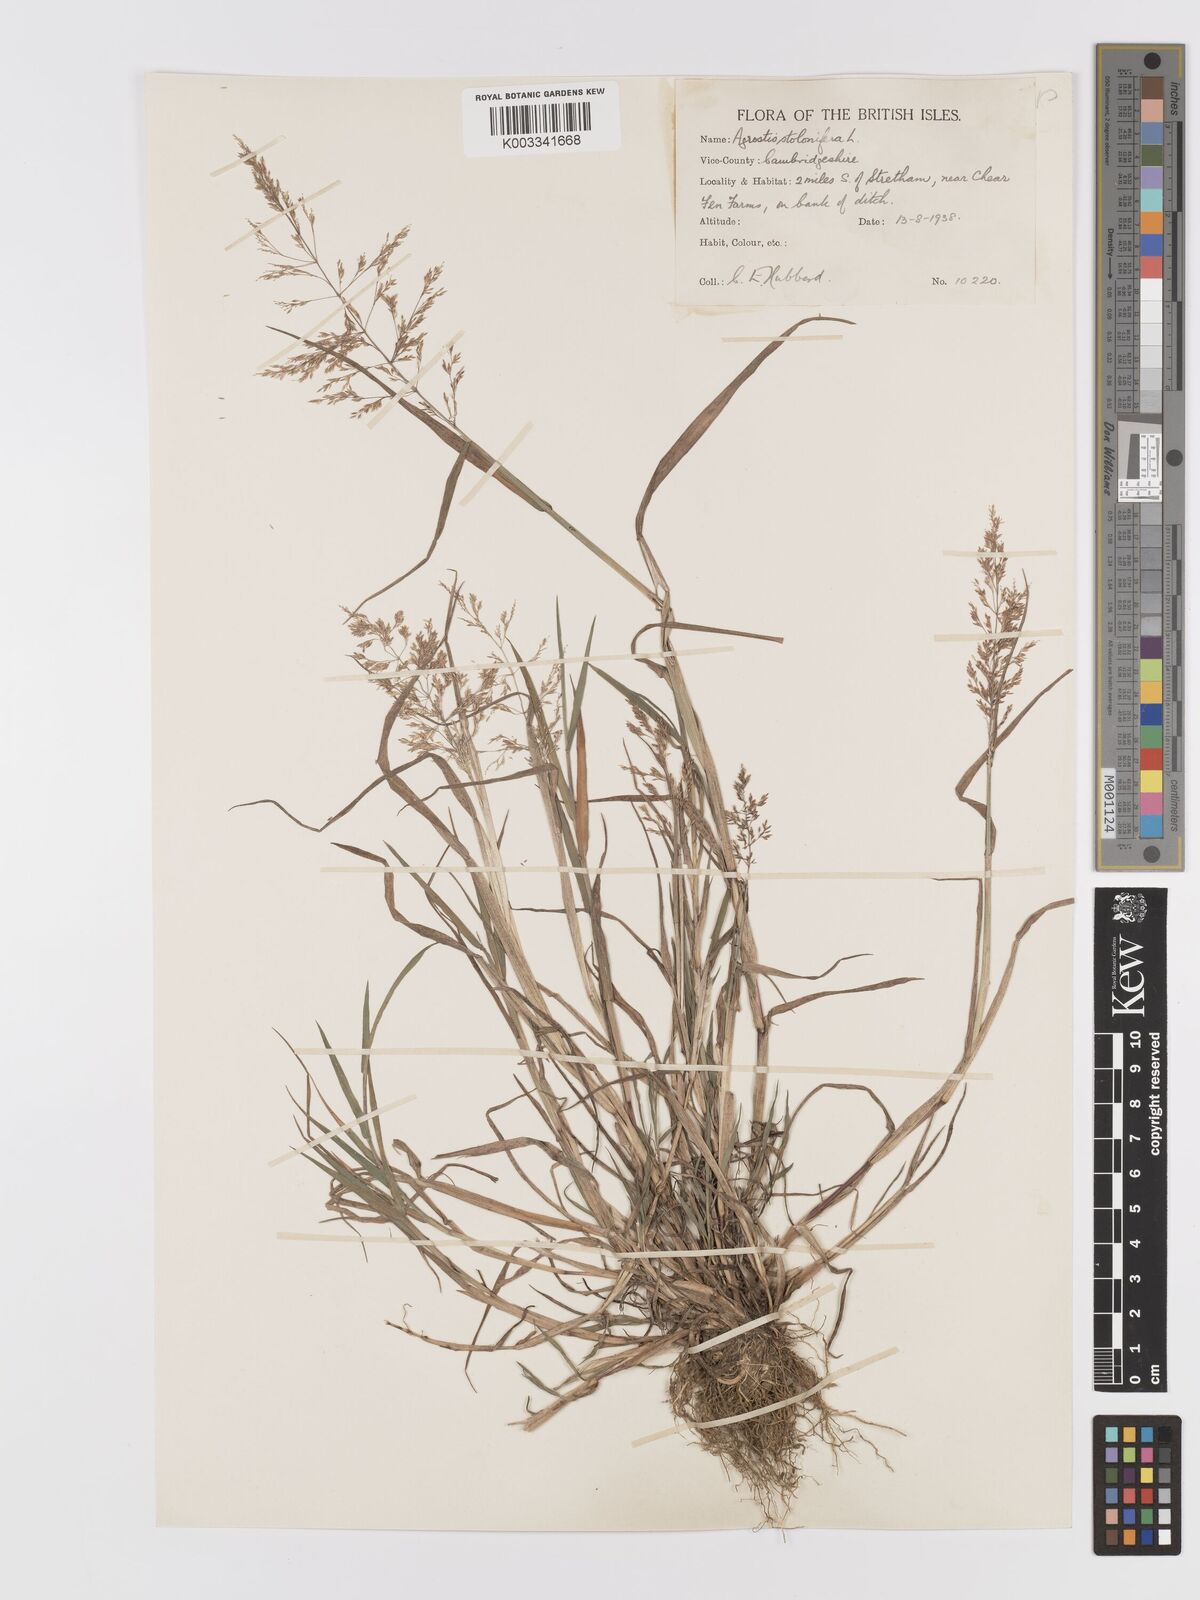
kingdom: Plantae
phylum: Tracheophyta
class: Liliopsida
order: Poales
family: Poaceae
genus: Agrostis
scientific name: Agrostis stolonifera
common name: Creeping bentgrass
